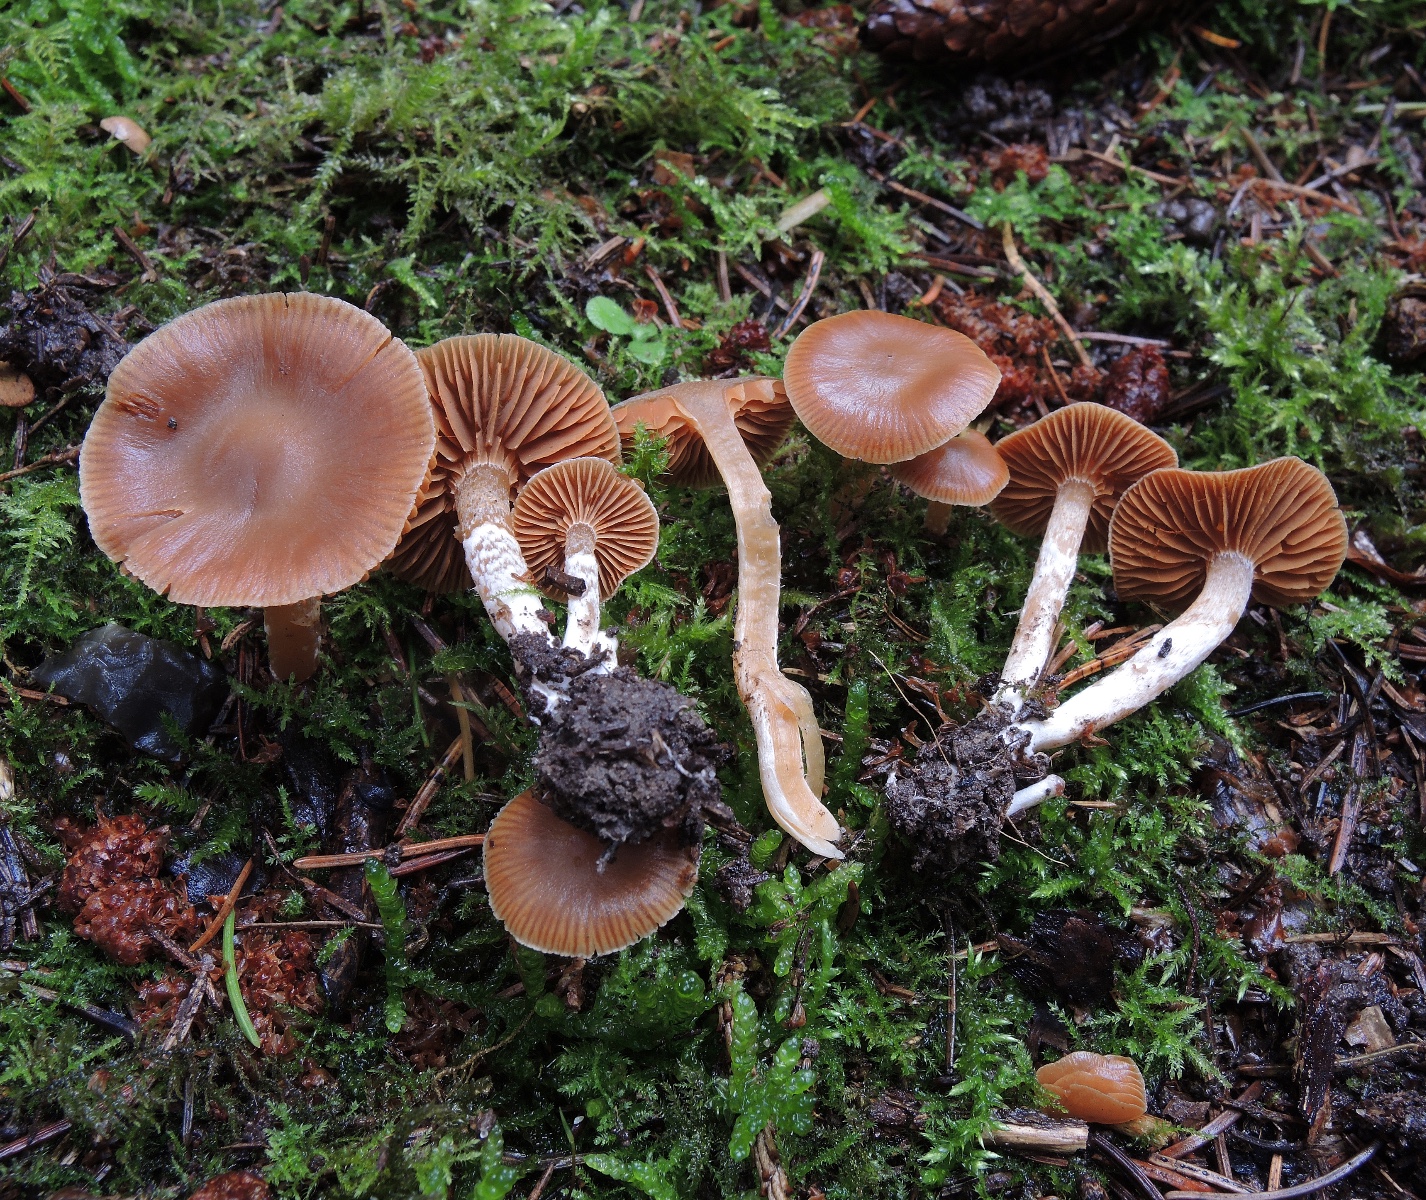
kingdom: Fungi
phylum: Basidiomycota
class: Agaricomycetes
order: Agaricales
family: Cortinariaceae
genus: Cortinarius
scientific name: Cortinarius
